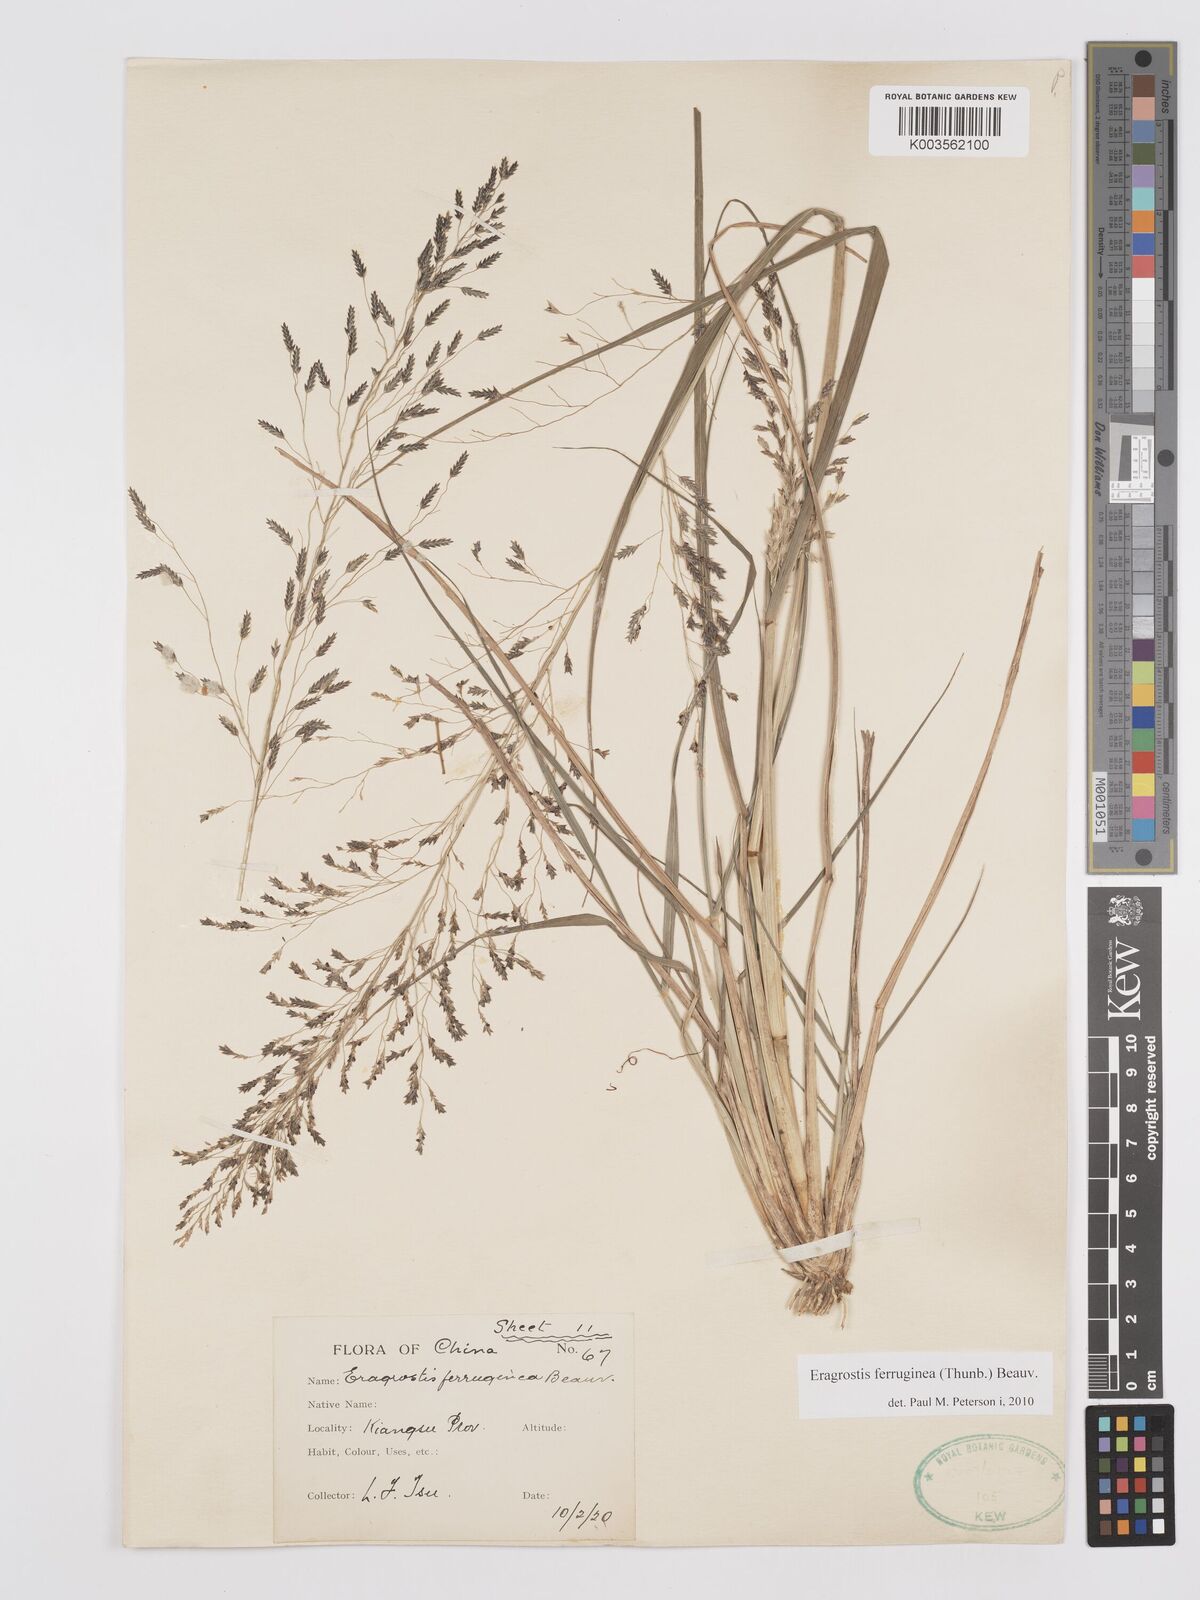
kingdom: Plantae
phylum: Tracheophyta
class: Liliopsida
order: Poales
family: Poaceae
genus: Eragrostis
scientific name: Eragrostis ferruginea
